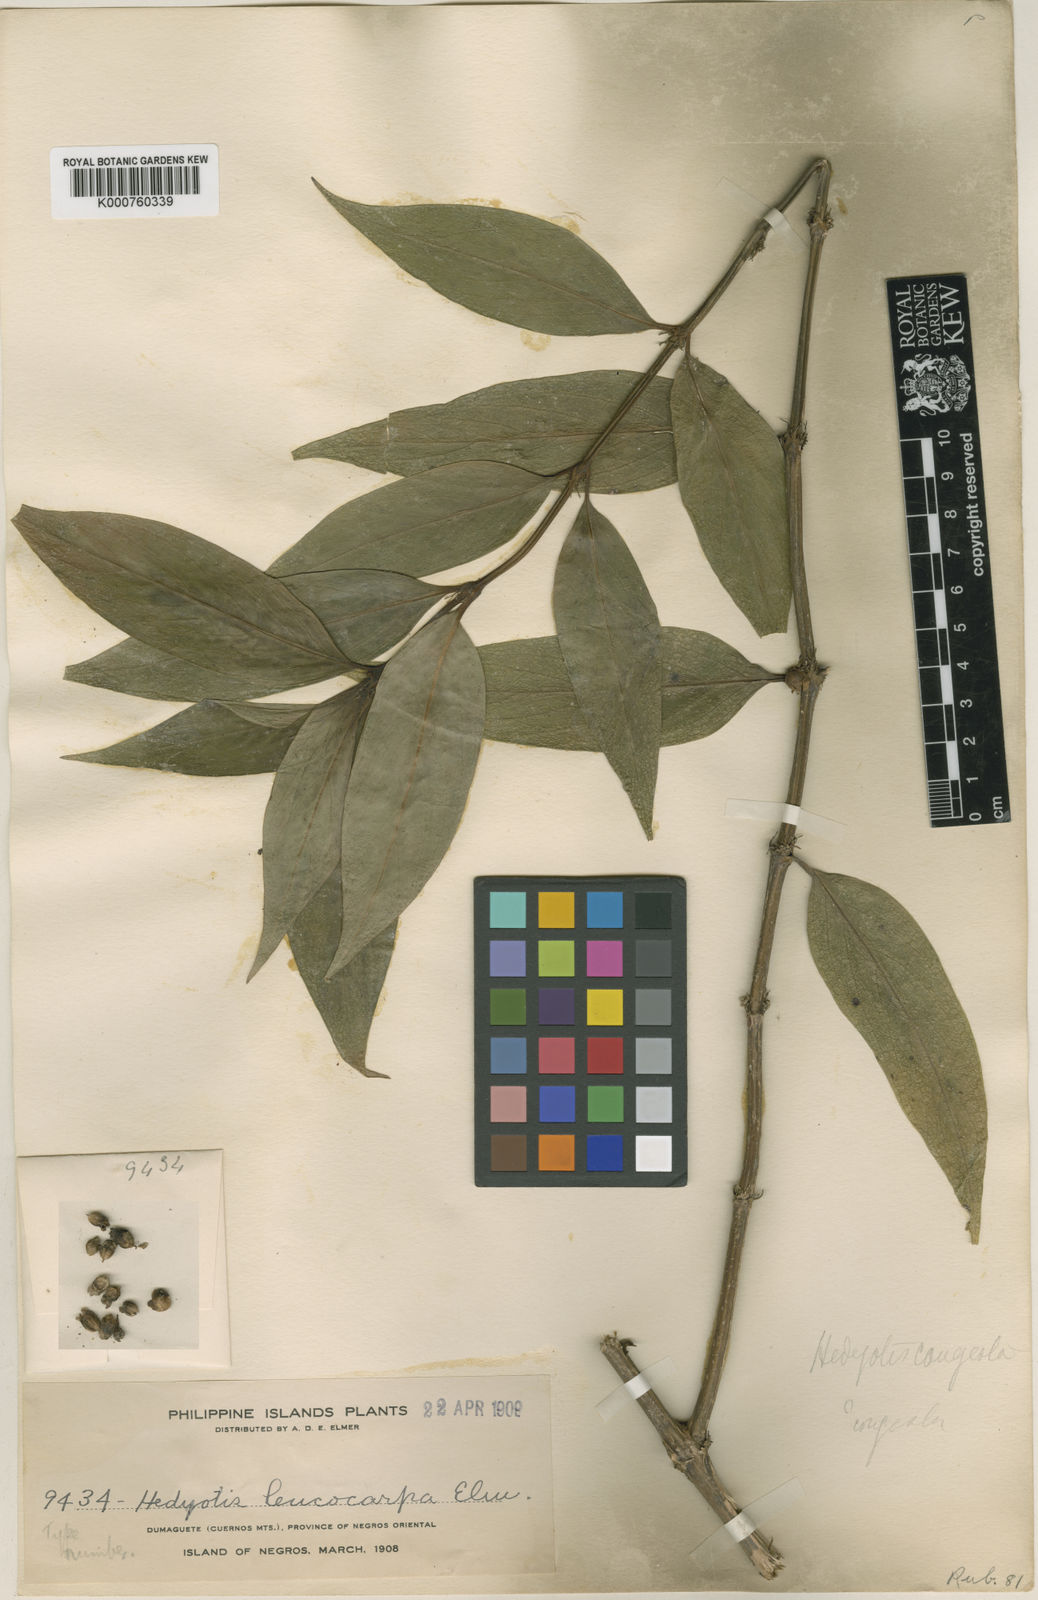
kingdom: Plantae
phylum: Tracheophyta
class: Magnoliopsida
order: Gentianales
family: Rubiaceae
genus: Hedyotis
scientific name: Hedyotis rigida
